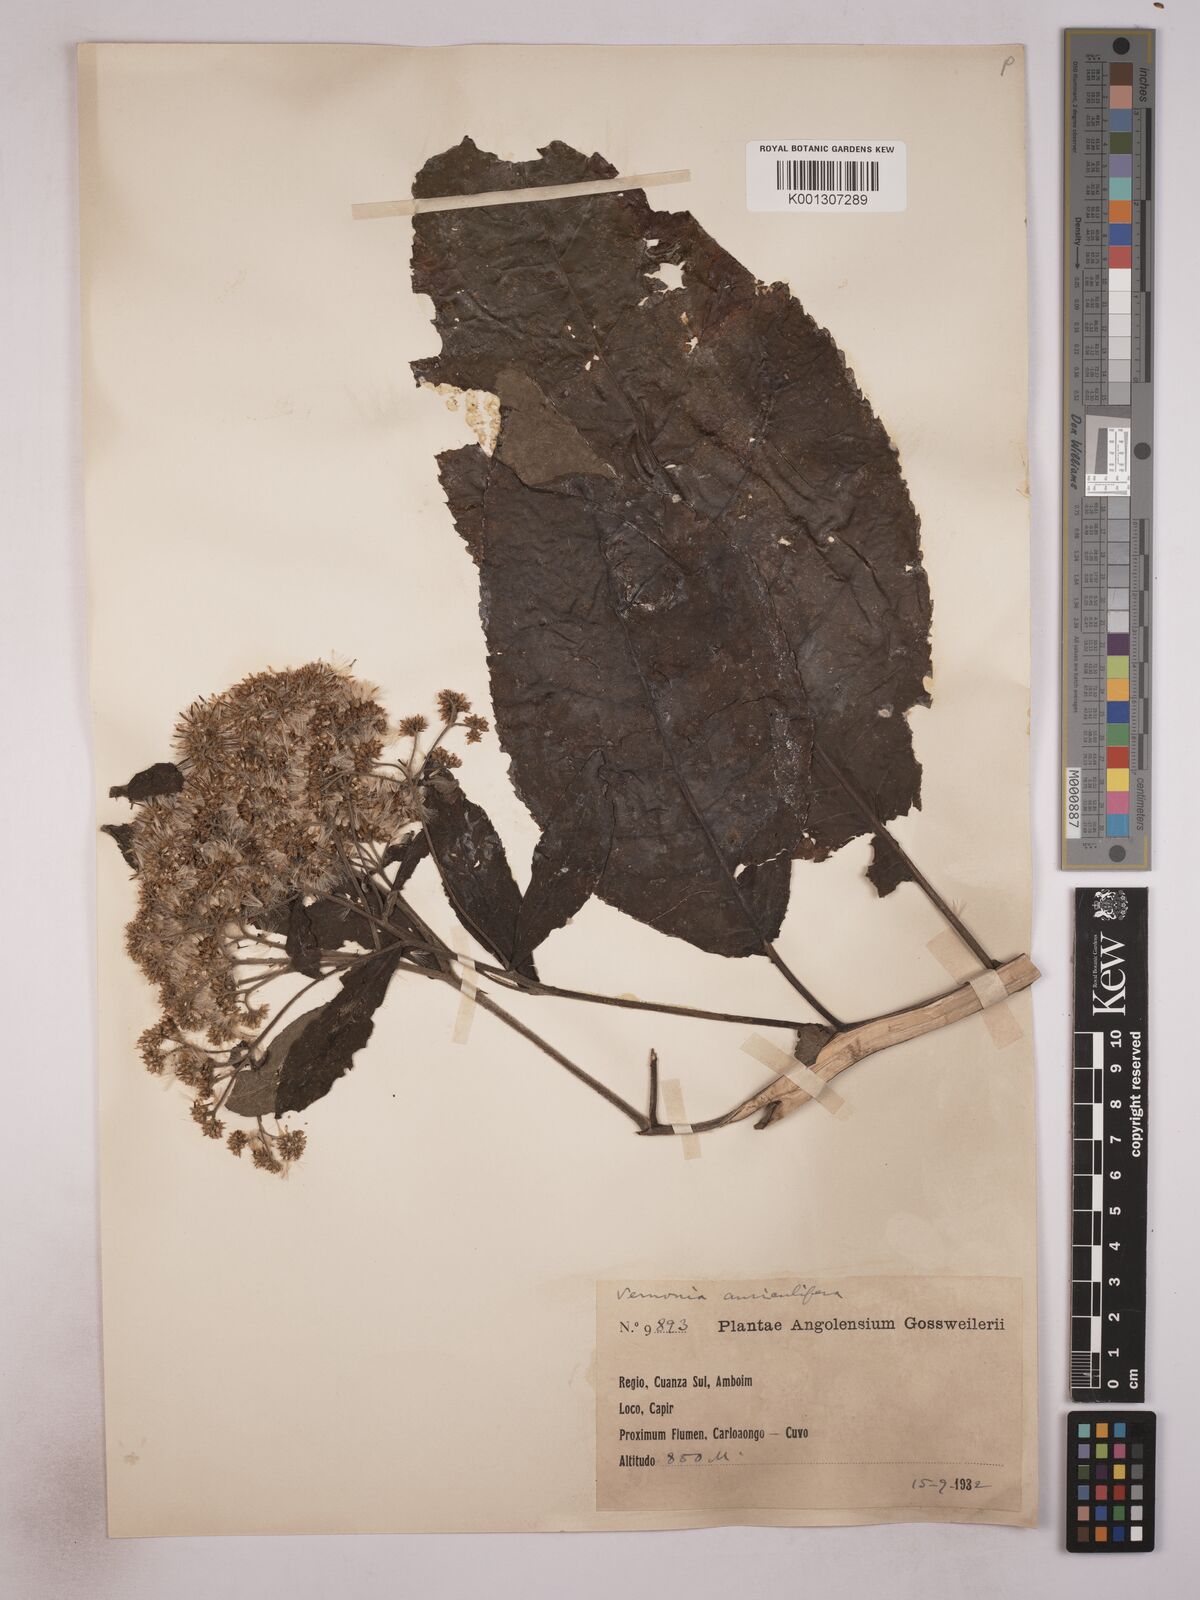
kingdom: Plantae
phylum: Tracheophyta
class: Magnoliopsida
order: Asterales
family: Asteraceae
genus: Gymnanthemum
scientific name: Gymnanthemum auriculiferum
